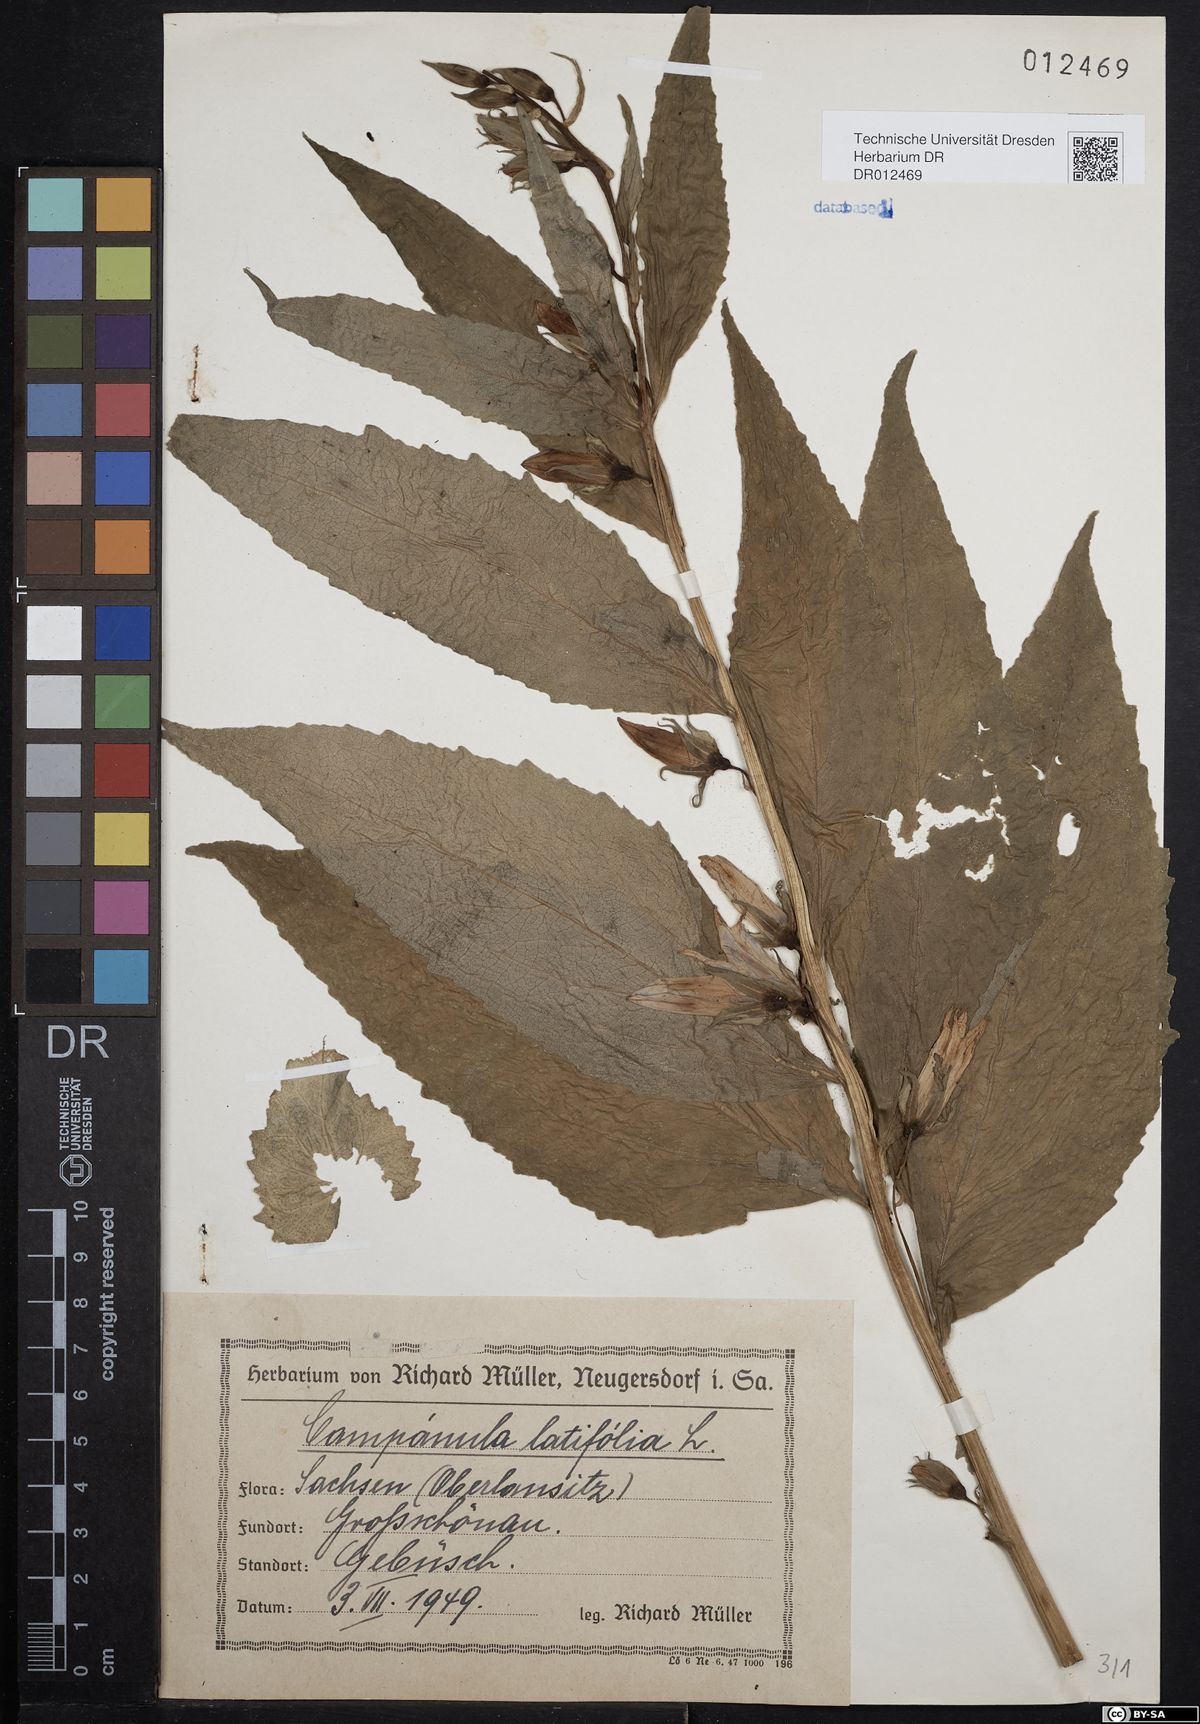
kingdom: Plantae
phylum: Tracheophyta
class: Magnoliopsida
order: Asterales
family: Campanulaceae
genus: Campanula
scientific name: Campanula latifolia
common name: Giant bellflower
